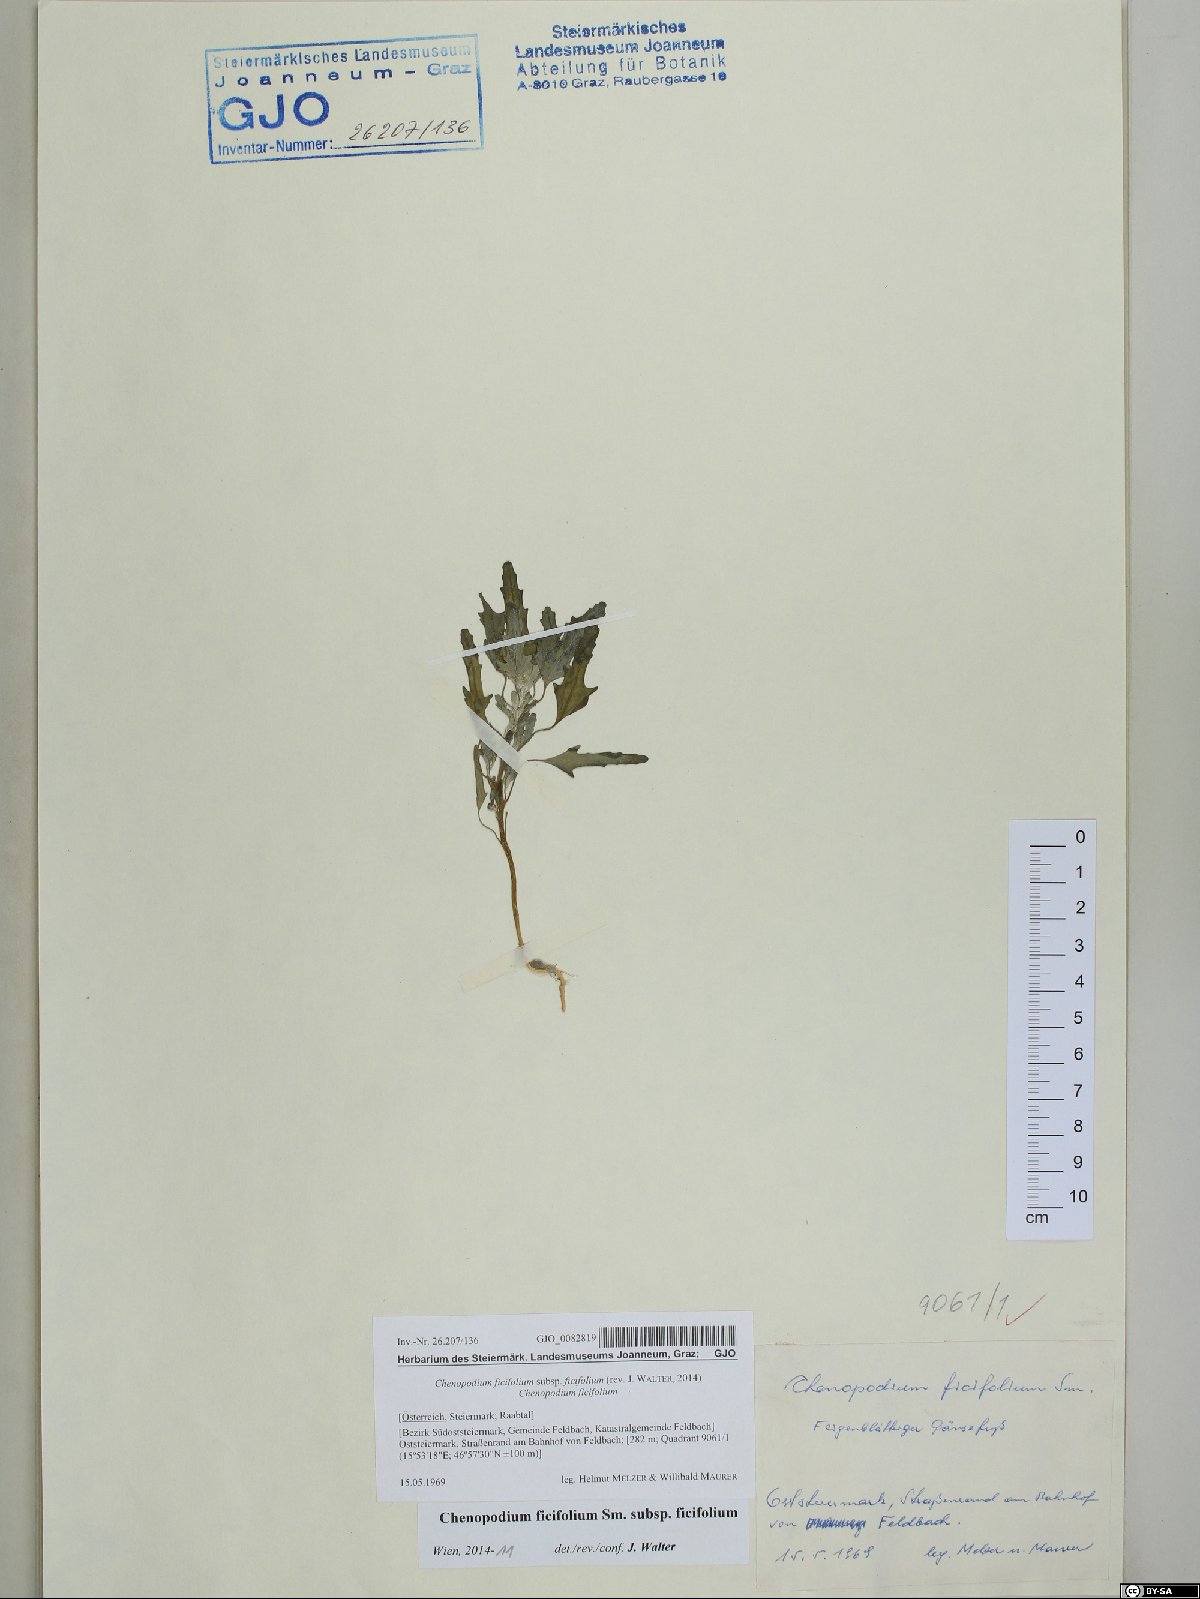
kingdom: Plantae
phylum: Tracheophyta
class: Magnoliopsida
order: Caryophyllales
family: Amaranthaceae
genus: Chenopodium
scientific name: Chenopodium ficifolium
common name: Fig-leaved goosefoot
